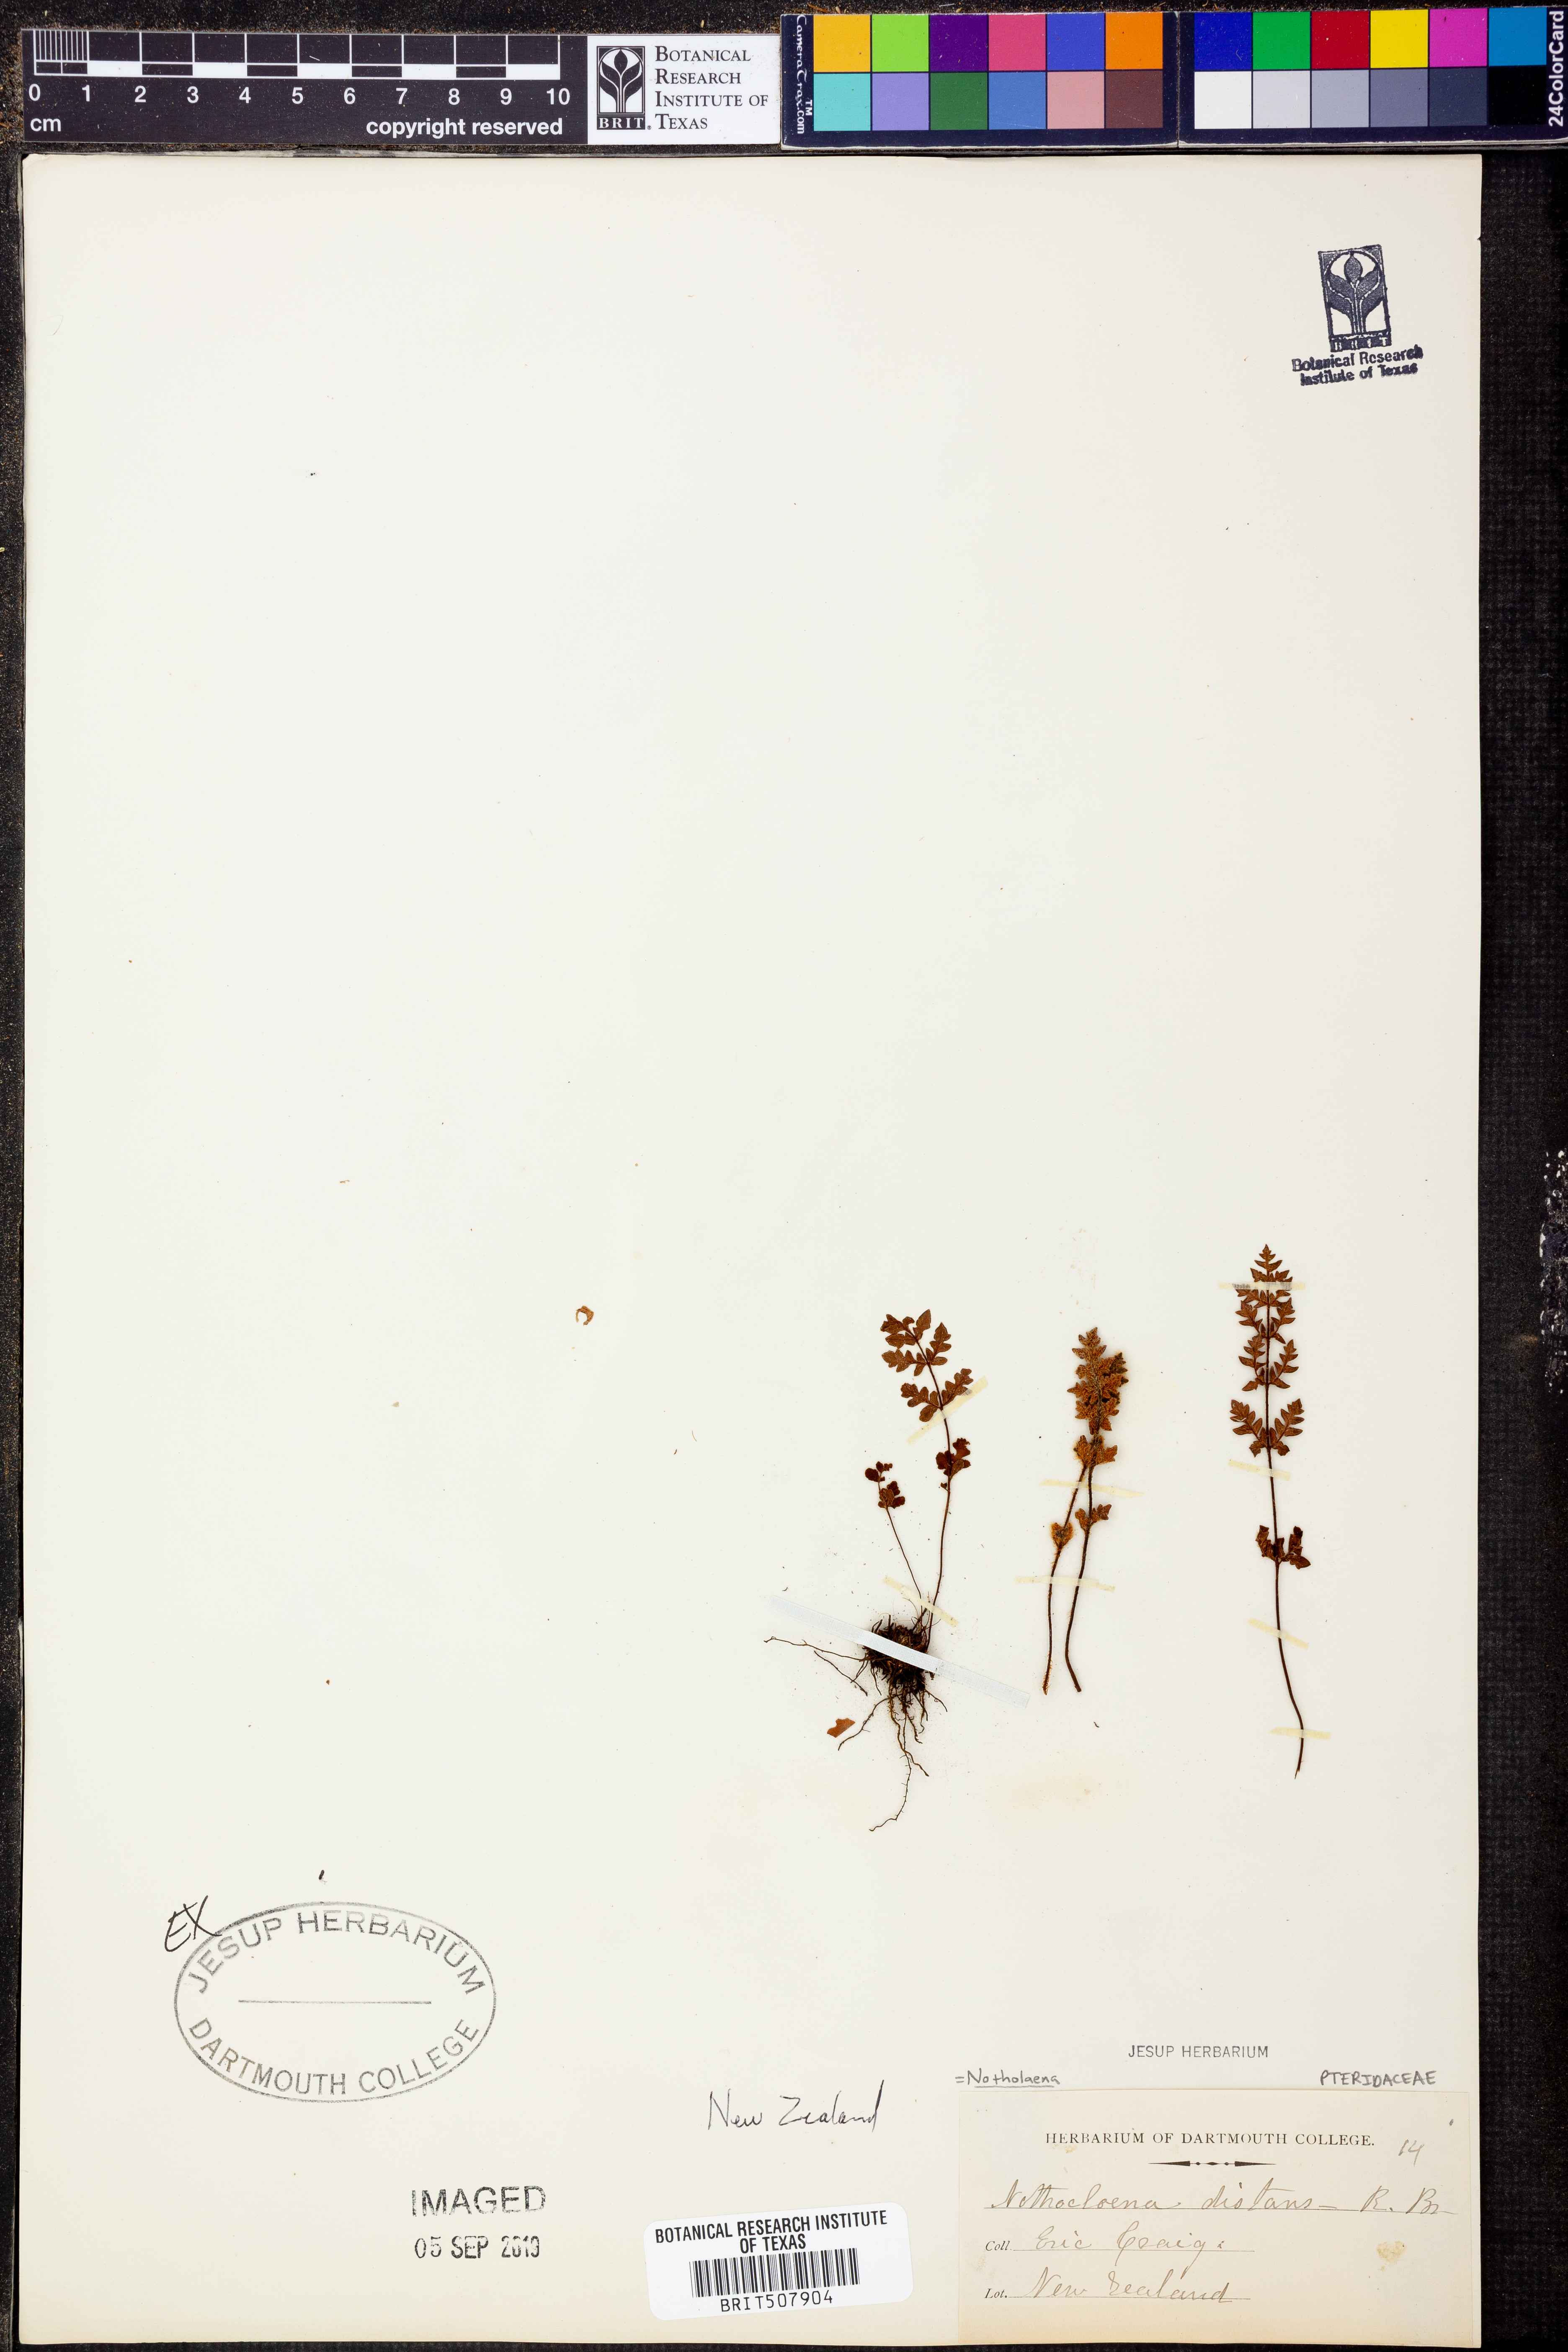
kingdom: Plantae
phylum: Tracheophyta
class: Polypodiopsida
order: Polypodiales
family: Pteridaceae
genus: Cheilanthes
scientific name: Cheilanthes distans
